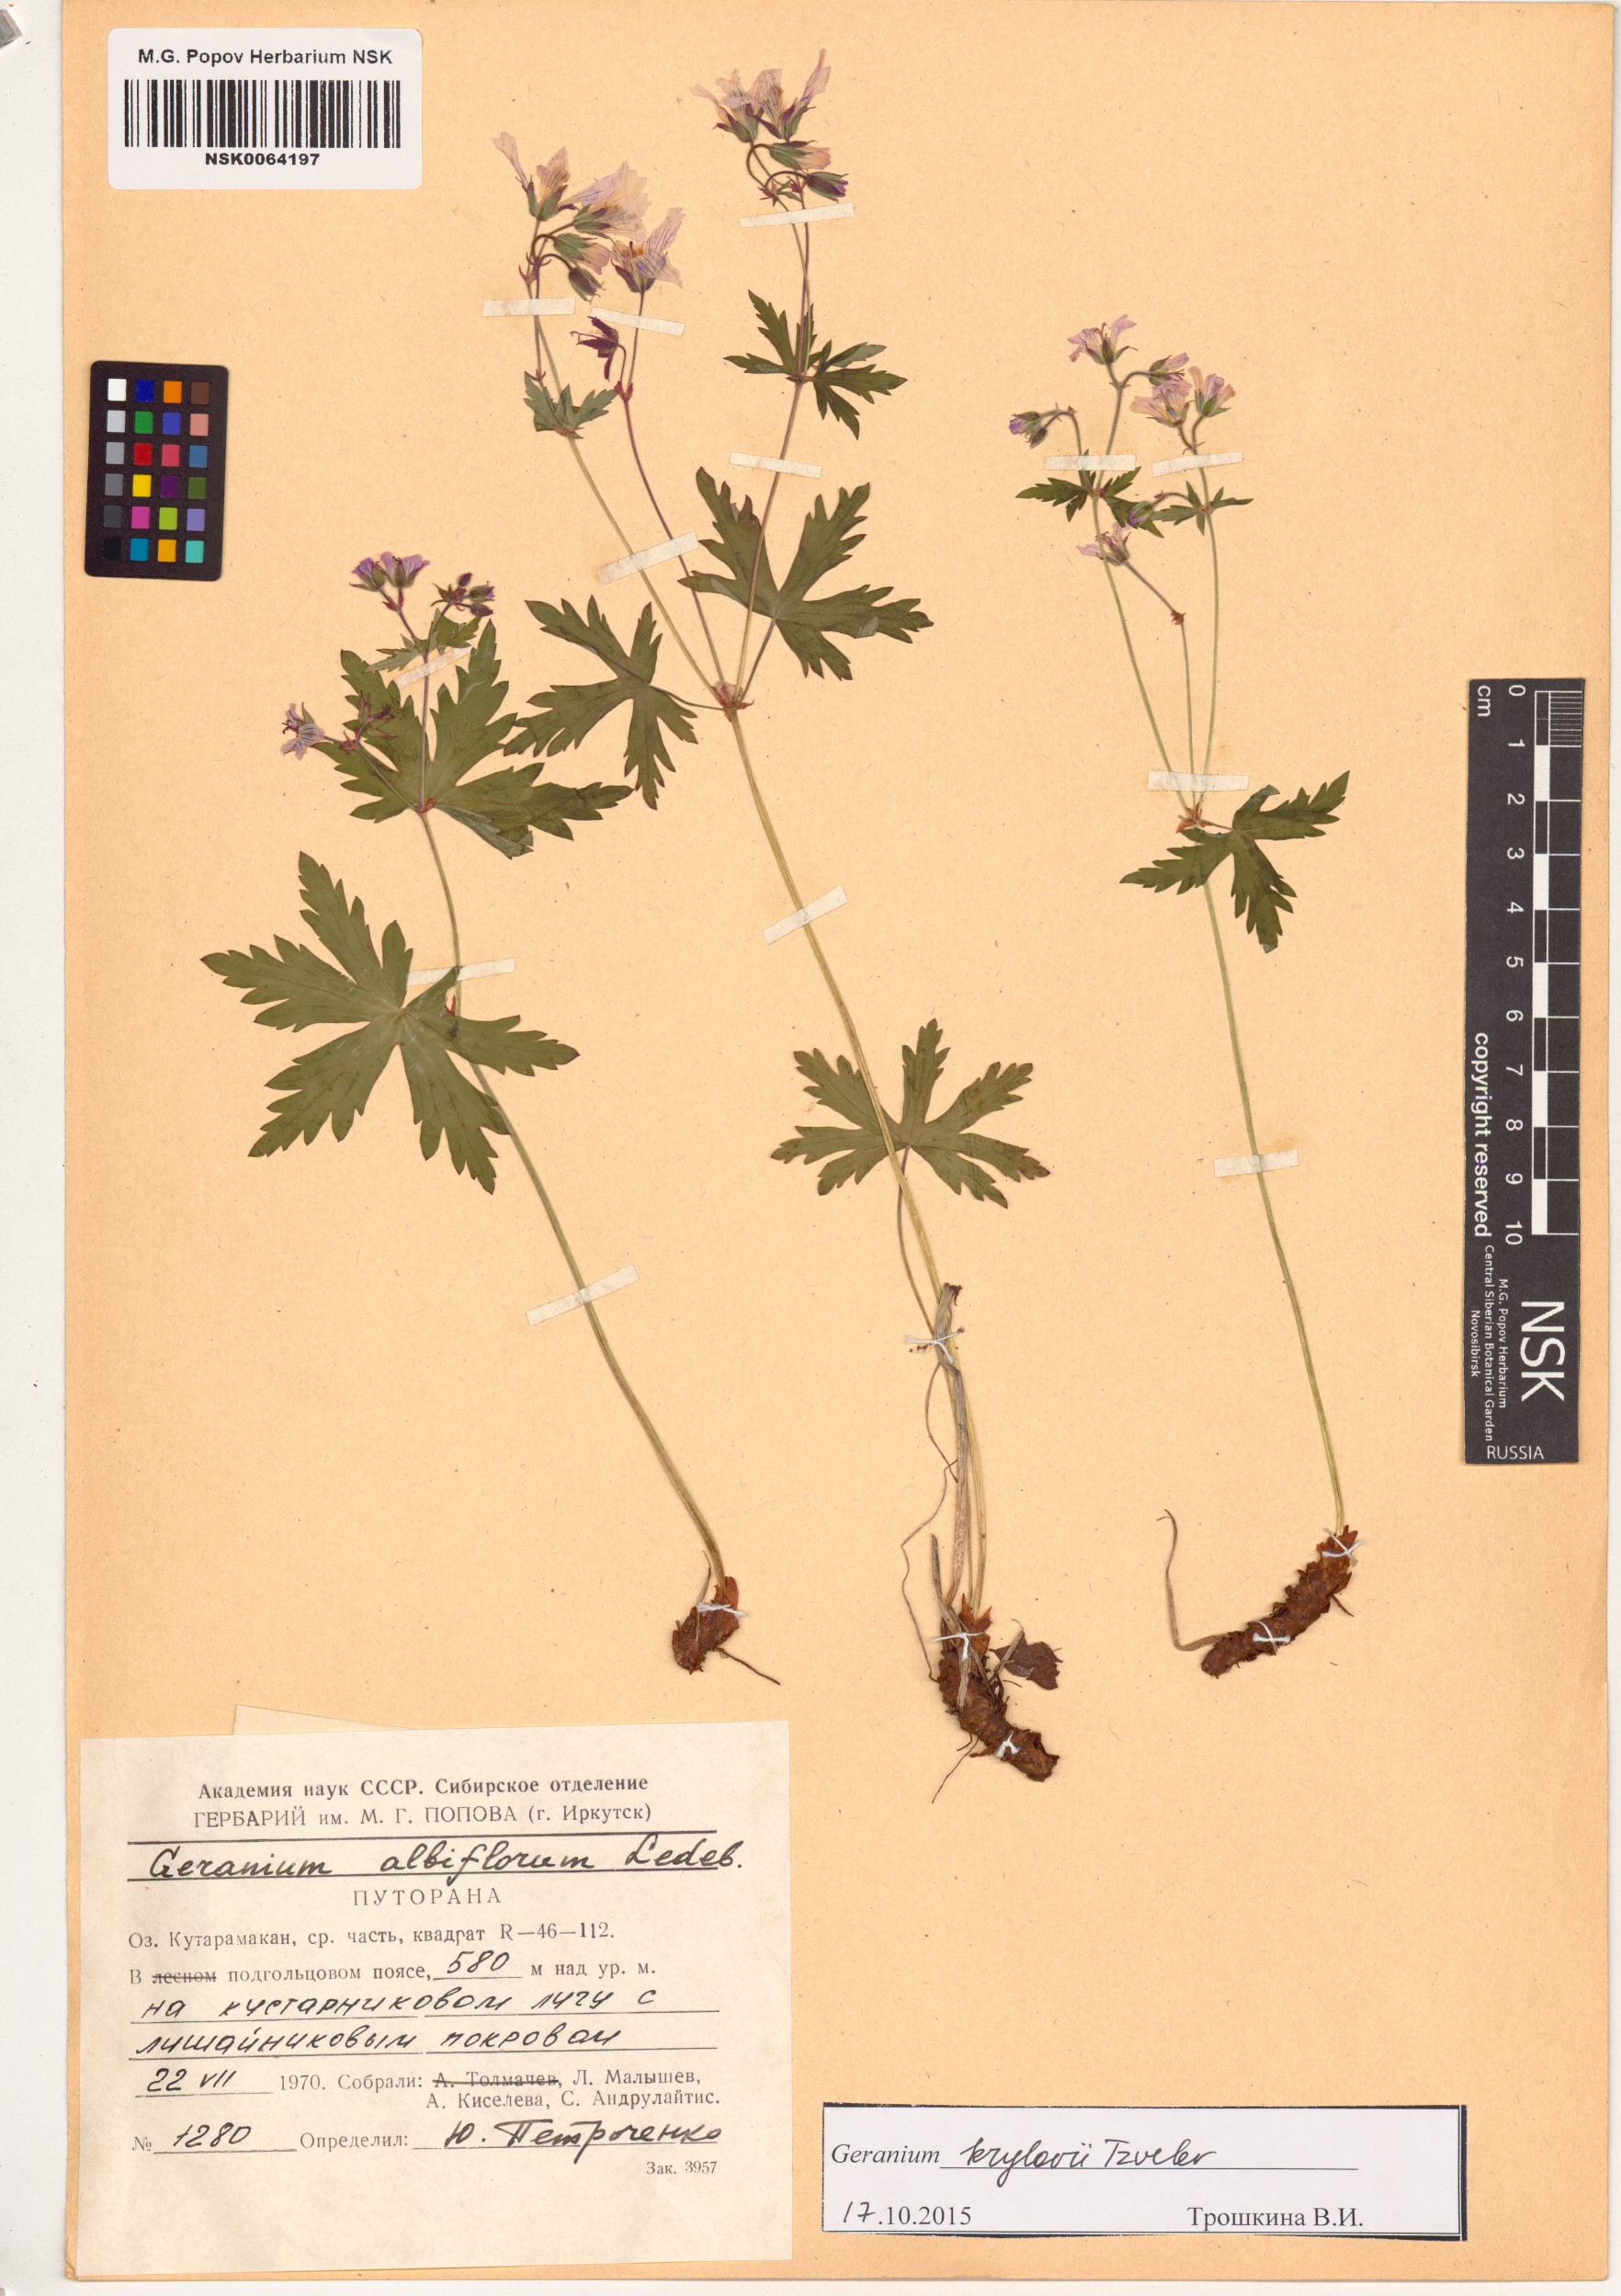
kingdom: Plantae
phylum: Tracheophyta
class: Magnoliopsida
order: Geraniales
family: Geraniaceae
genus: Geranium
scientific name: Geranium sylvaticum
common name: Wood crane's-bill
